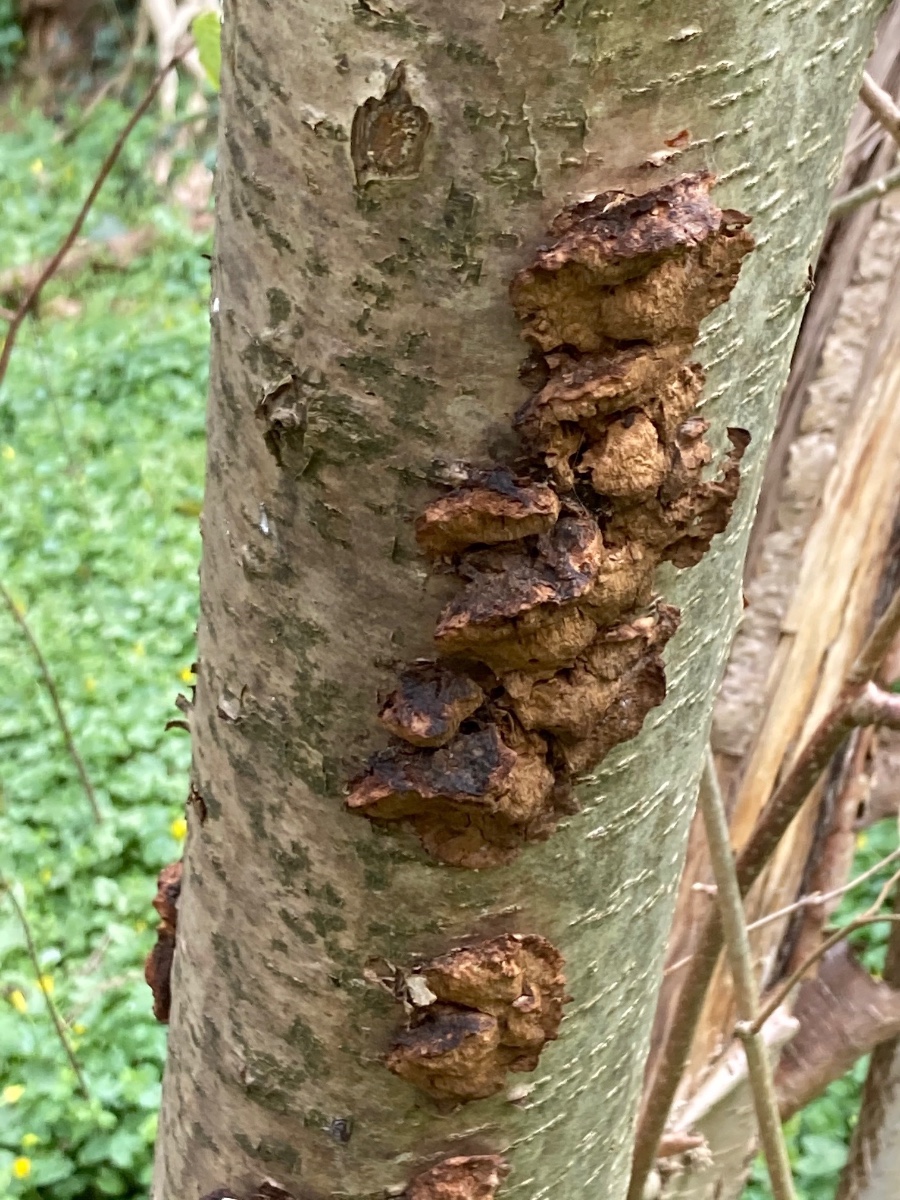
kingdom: Fungi
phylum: Basidiomycota
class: Agaricomycetes
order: Hymenochaetales
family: Hymenochaetaceae
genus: Xanthoporia
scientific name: Xanthoporia radiata
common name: elle-spejlporesvamp
